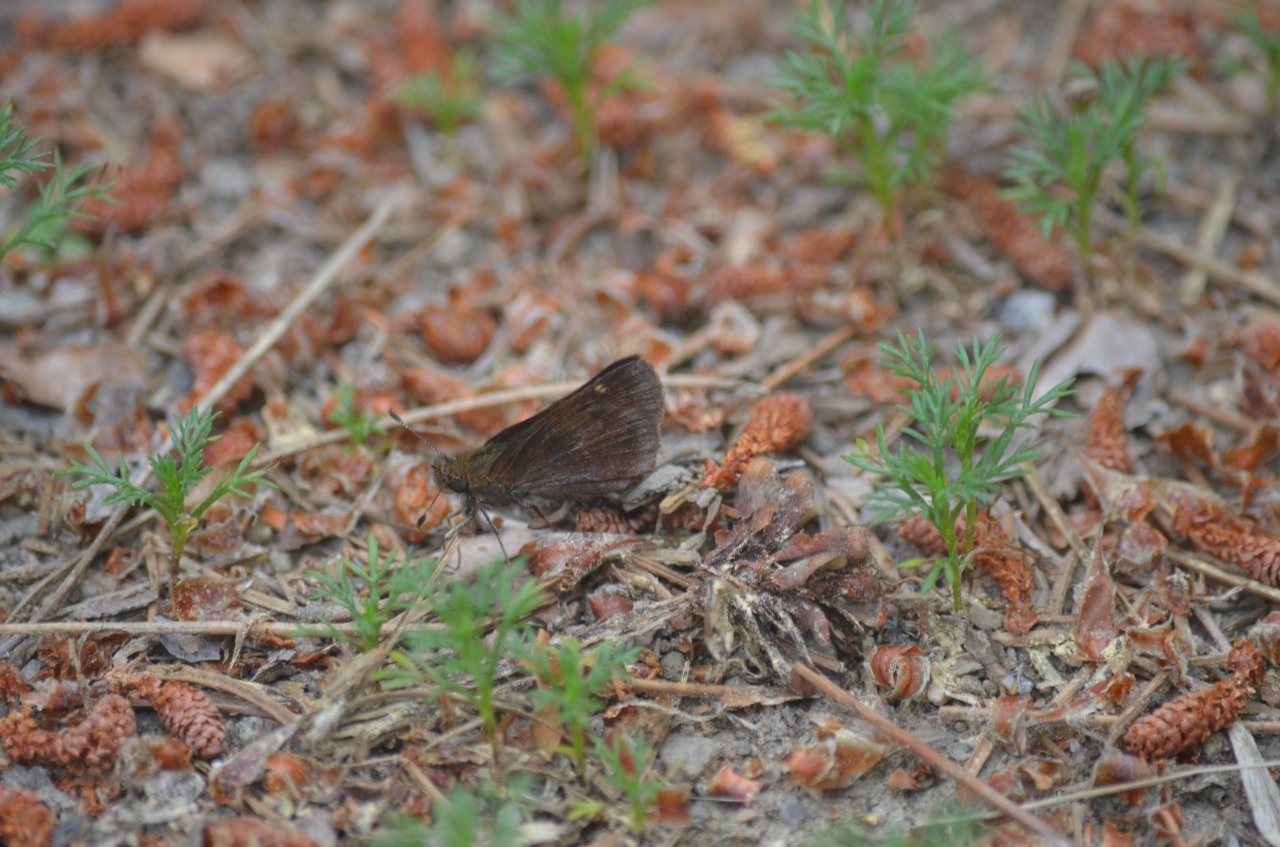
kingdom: Animalia
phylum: Arthropoda
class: Insecta
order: Lepidoptera
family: Hesperiidae
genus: Lon
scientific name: Lon hobomok
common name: Hobomok Skipper
